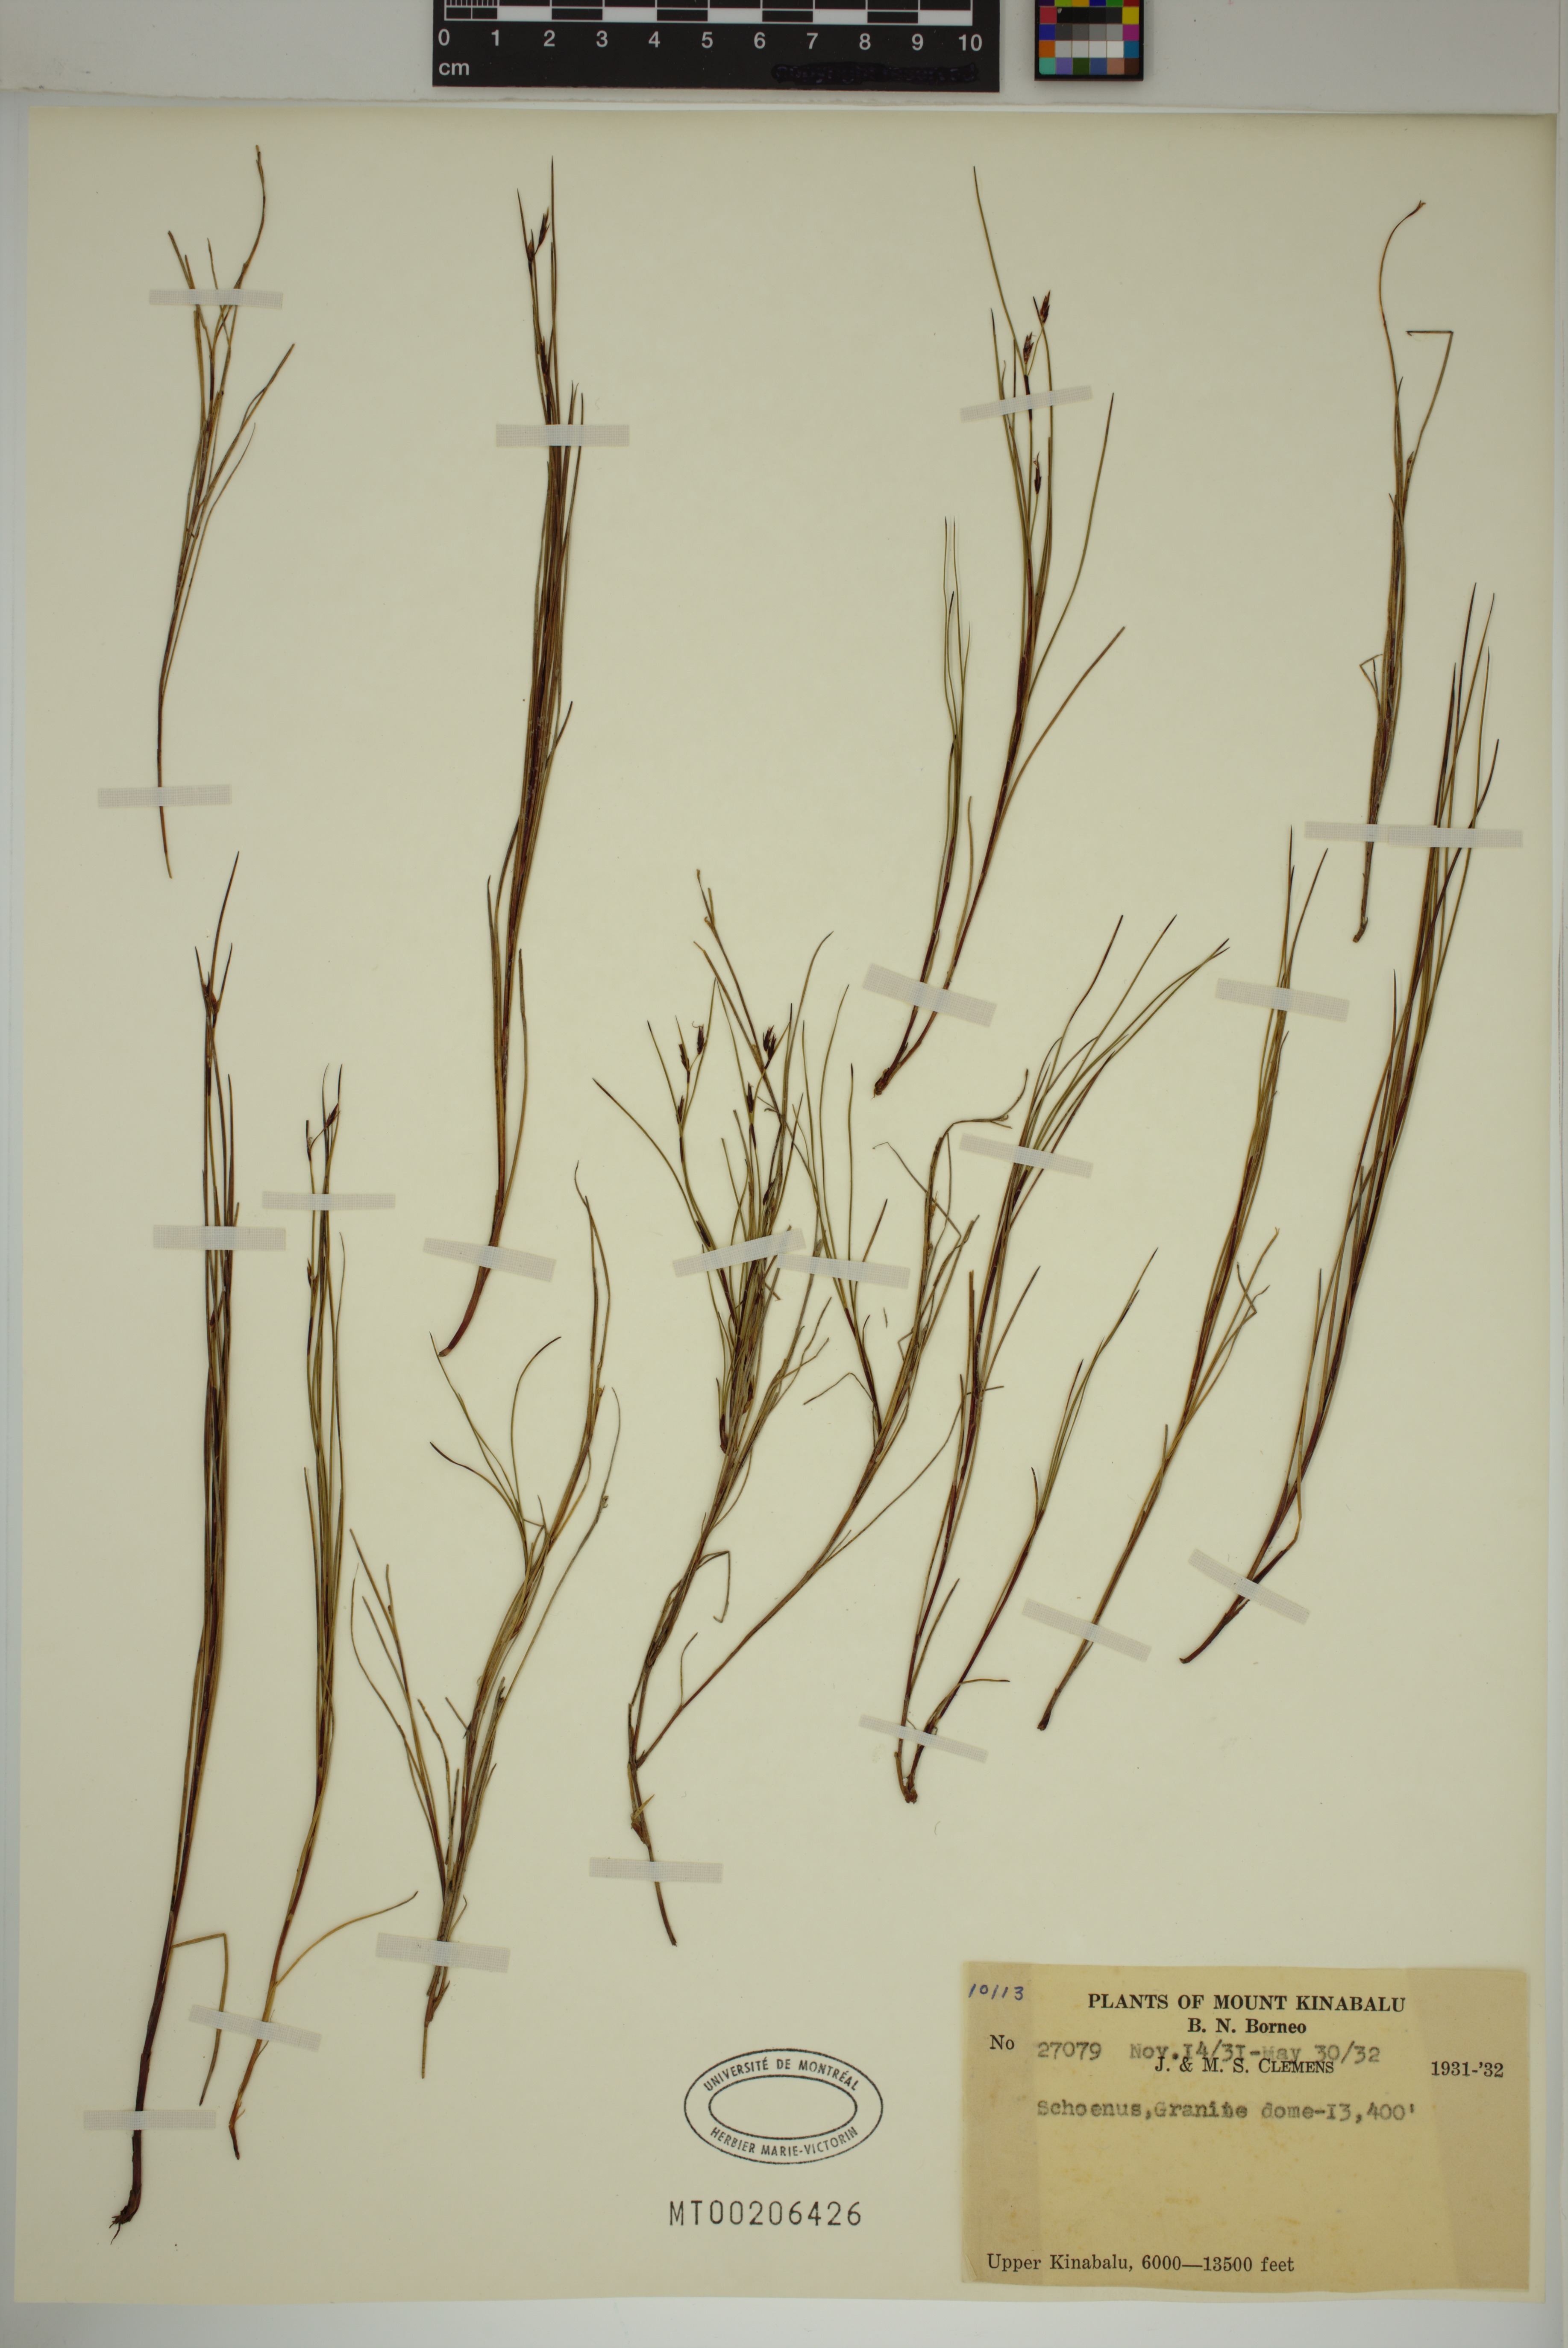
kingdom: Plantae
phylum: Tracheophyta
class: Liliopsida
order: Poales
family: Cyperaceae
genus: Schoenus
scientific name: Schoenus
